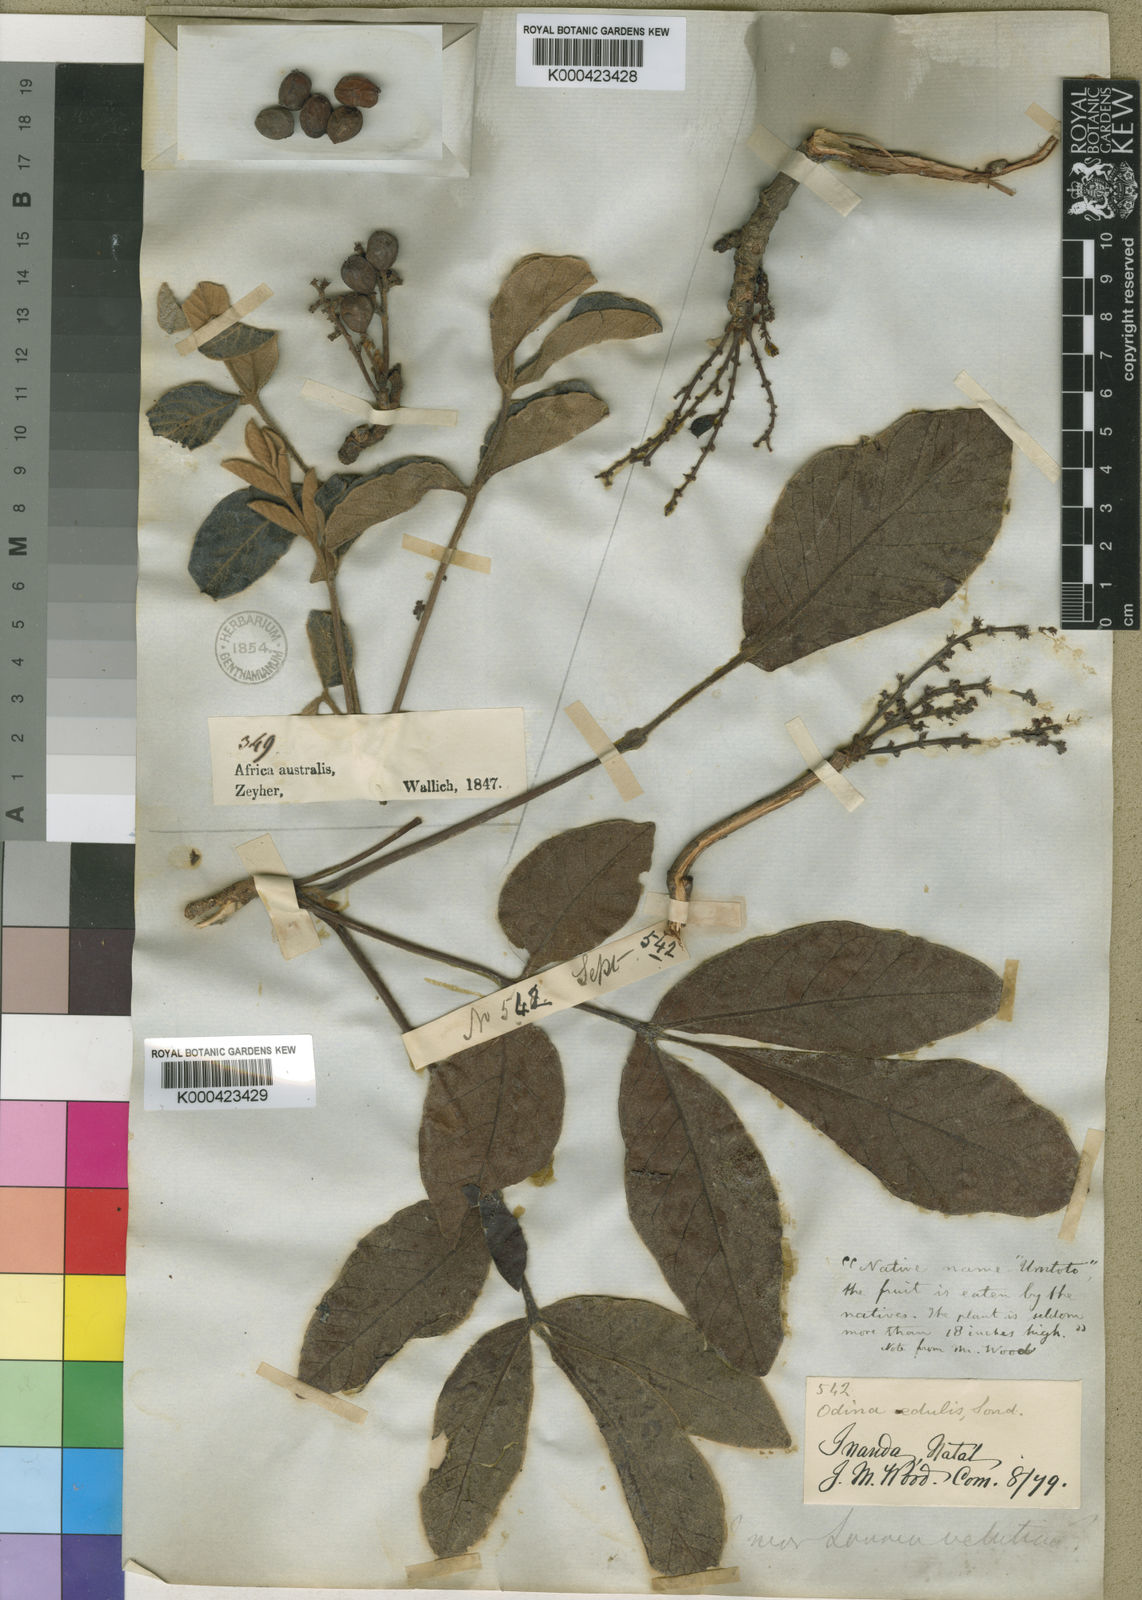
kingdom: Plantae
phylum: Tracheophyta
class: Magnoliopsida
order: Sapindales
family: Anacardiaceae
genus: Lannea
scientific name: Lannea edulis
